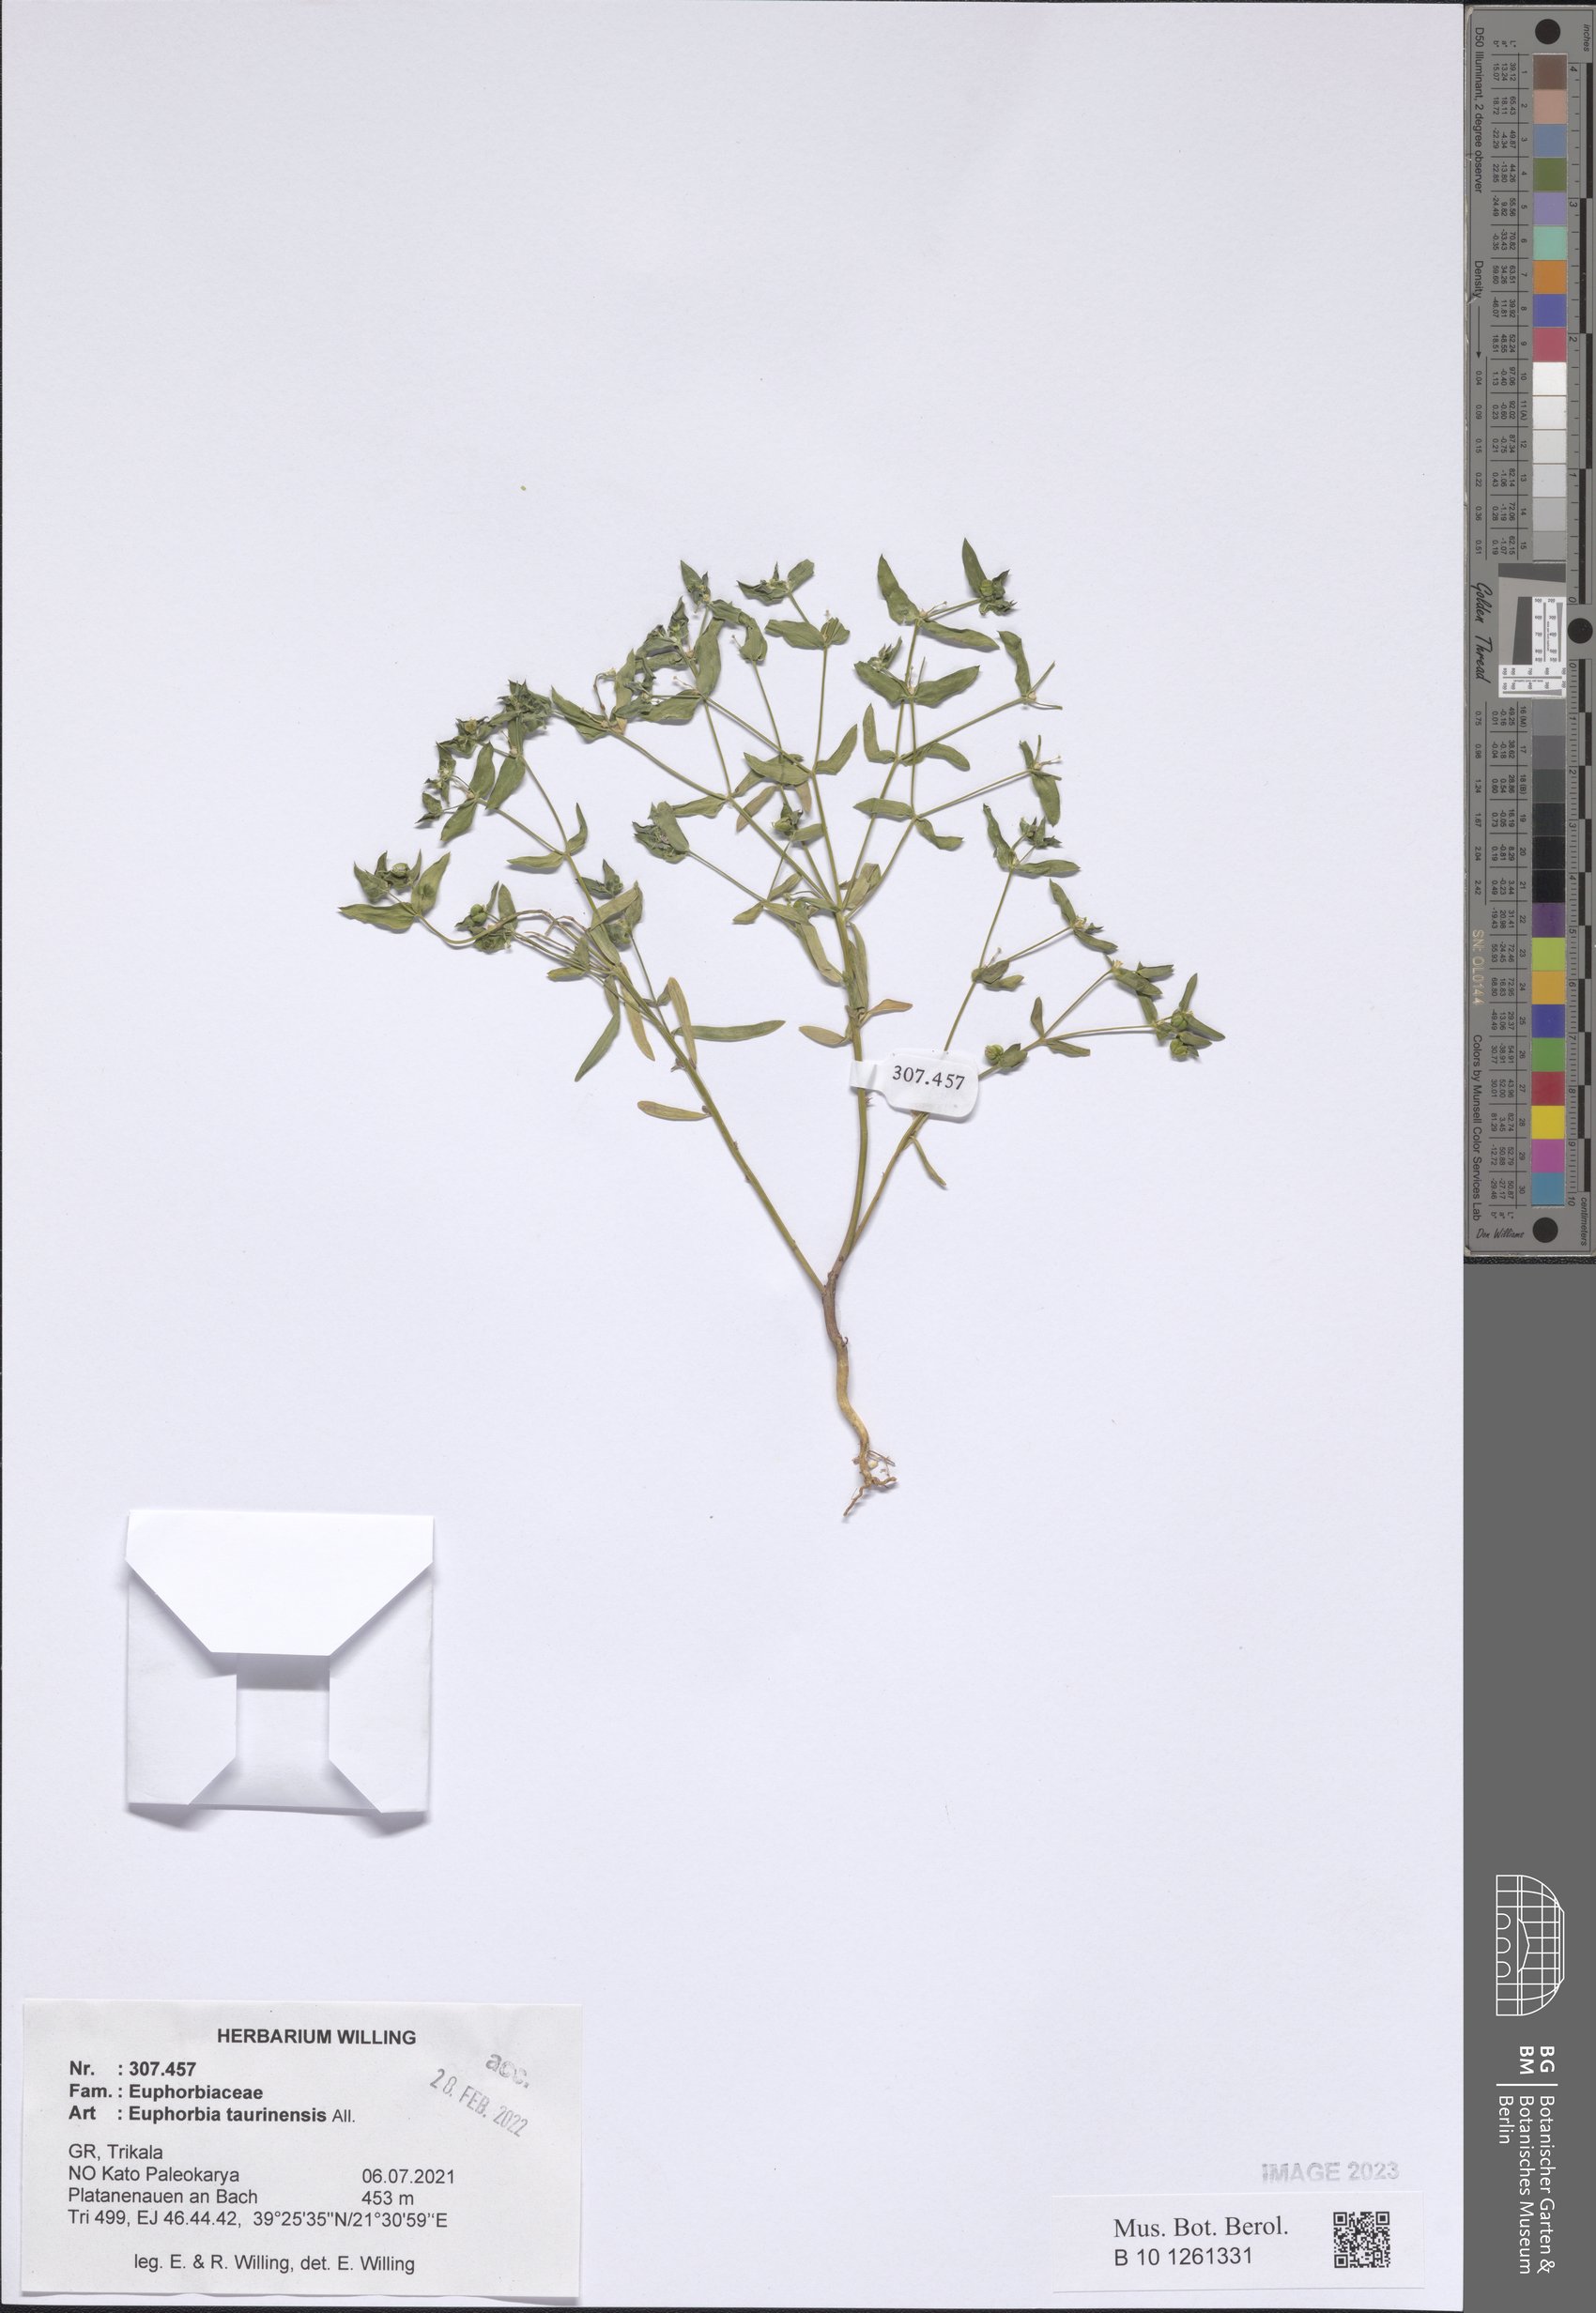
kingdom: Plantae
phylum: Tracheophyta
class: Magnoliopsida
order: Malpighiales
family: Euphorbiaceae
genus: Euphorbia
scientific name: Euphorbia taurinensis
